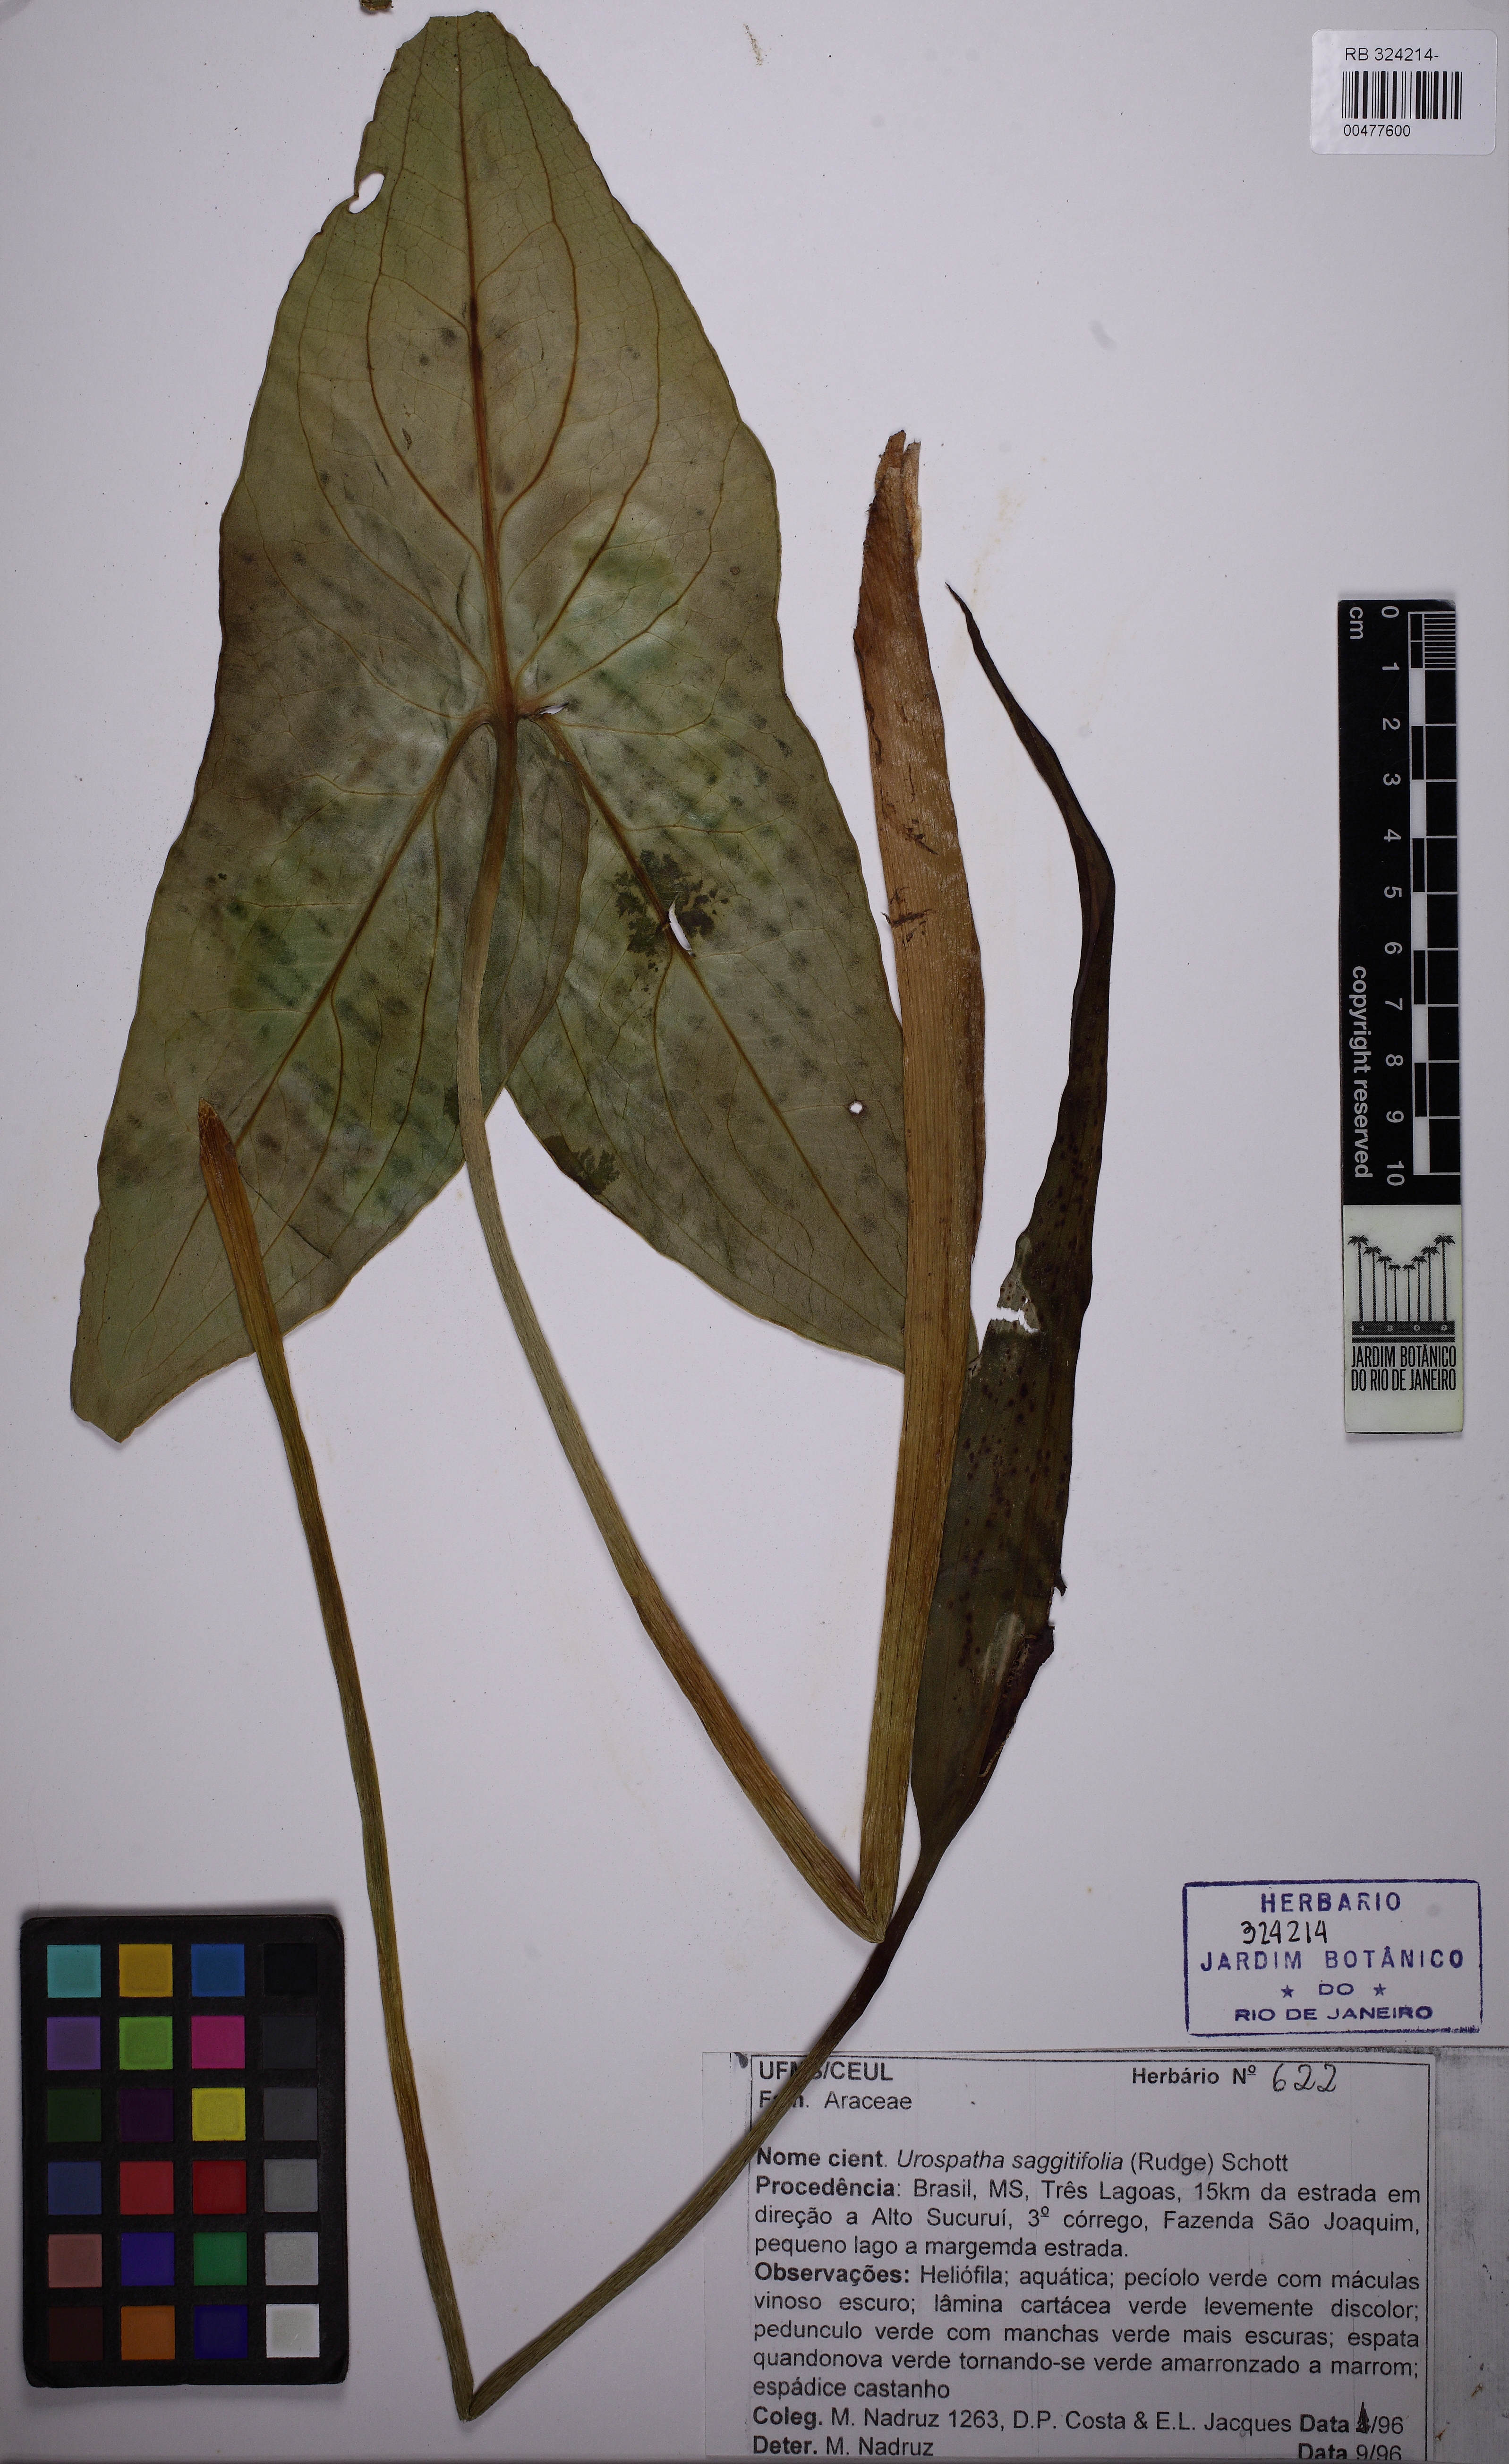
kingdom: Plantae
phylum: Tracheophyta
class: Liliopsida
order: Alismatales
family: Araceae
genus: Urospatha
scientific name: Urospatha edwallii
